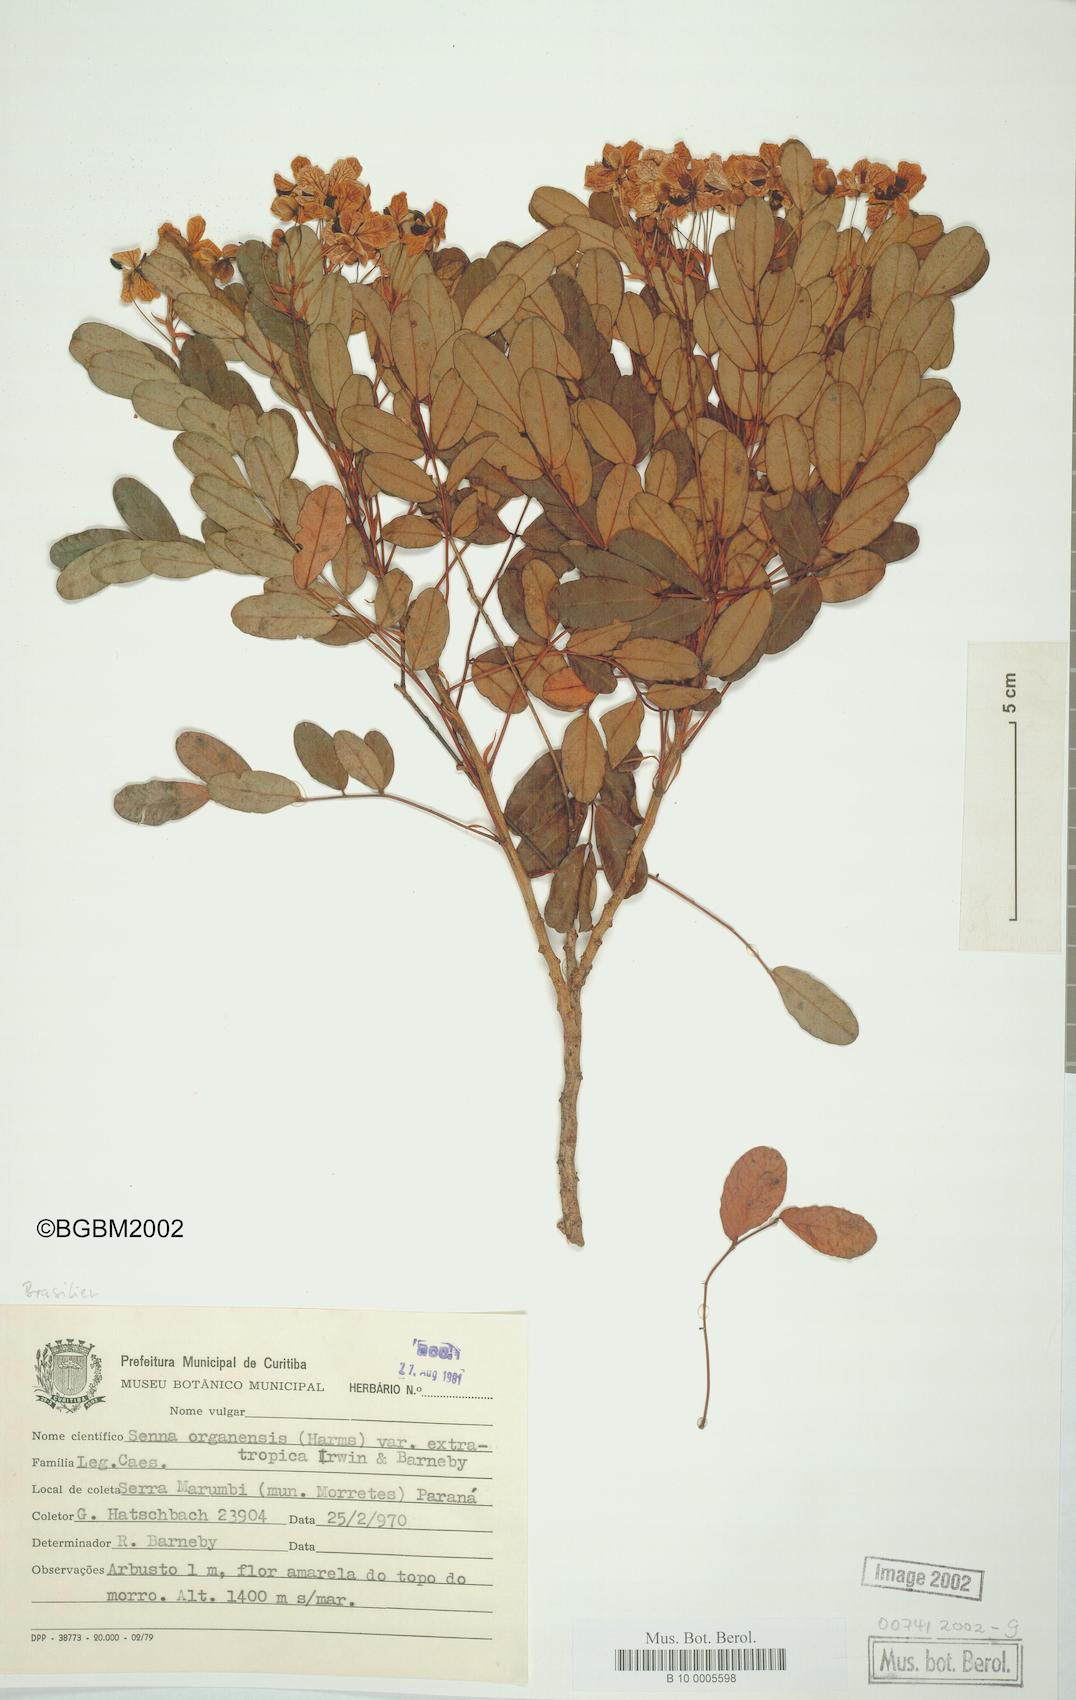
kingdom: Plantae
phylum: Tracheophyta
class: Magnoliopsida
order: Fabales
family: Fabaceae
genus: Senna
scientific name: Senna organensis
